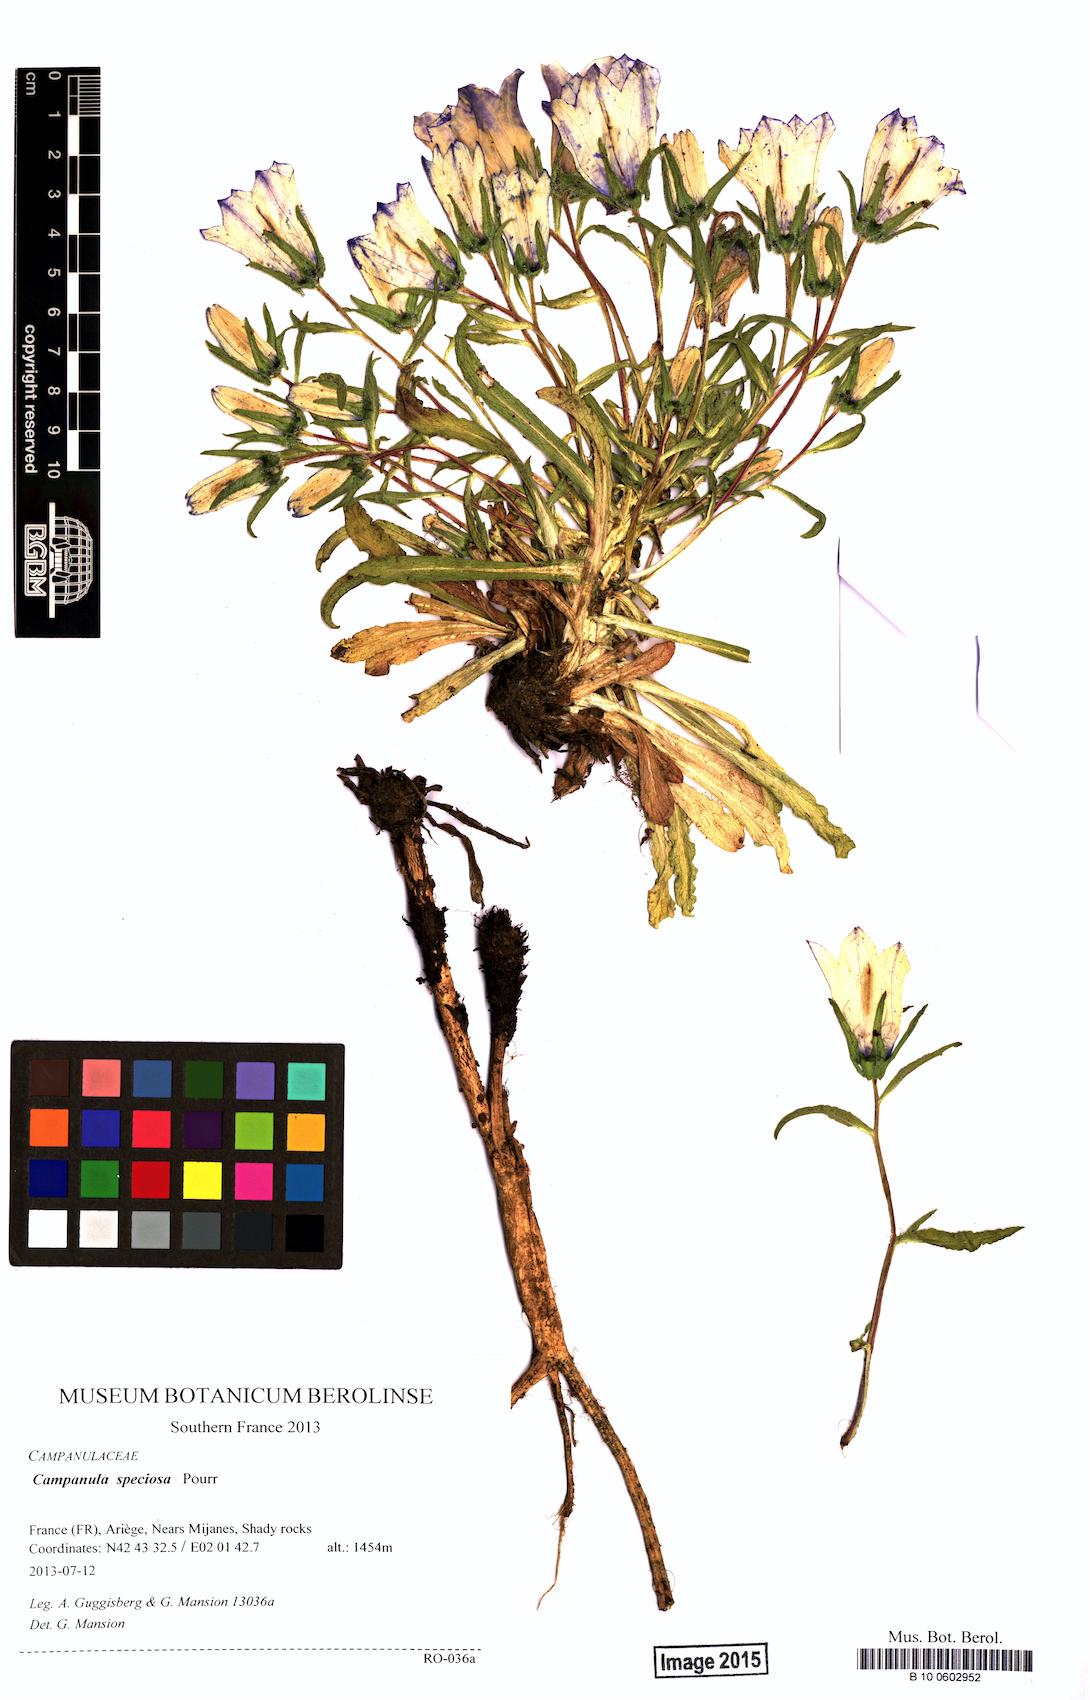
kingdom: Plantae
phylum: Tracheophyta
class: Magnoliopsida
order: Asterales
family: Campanulaceae
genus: Campanula
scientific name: Campanula speciosa
